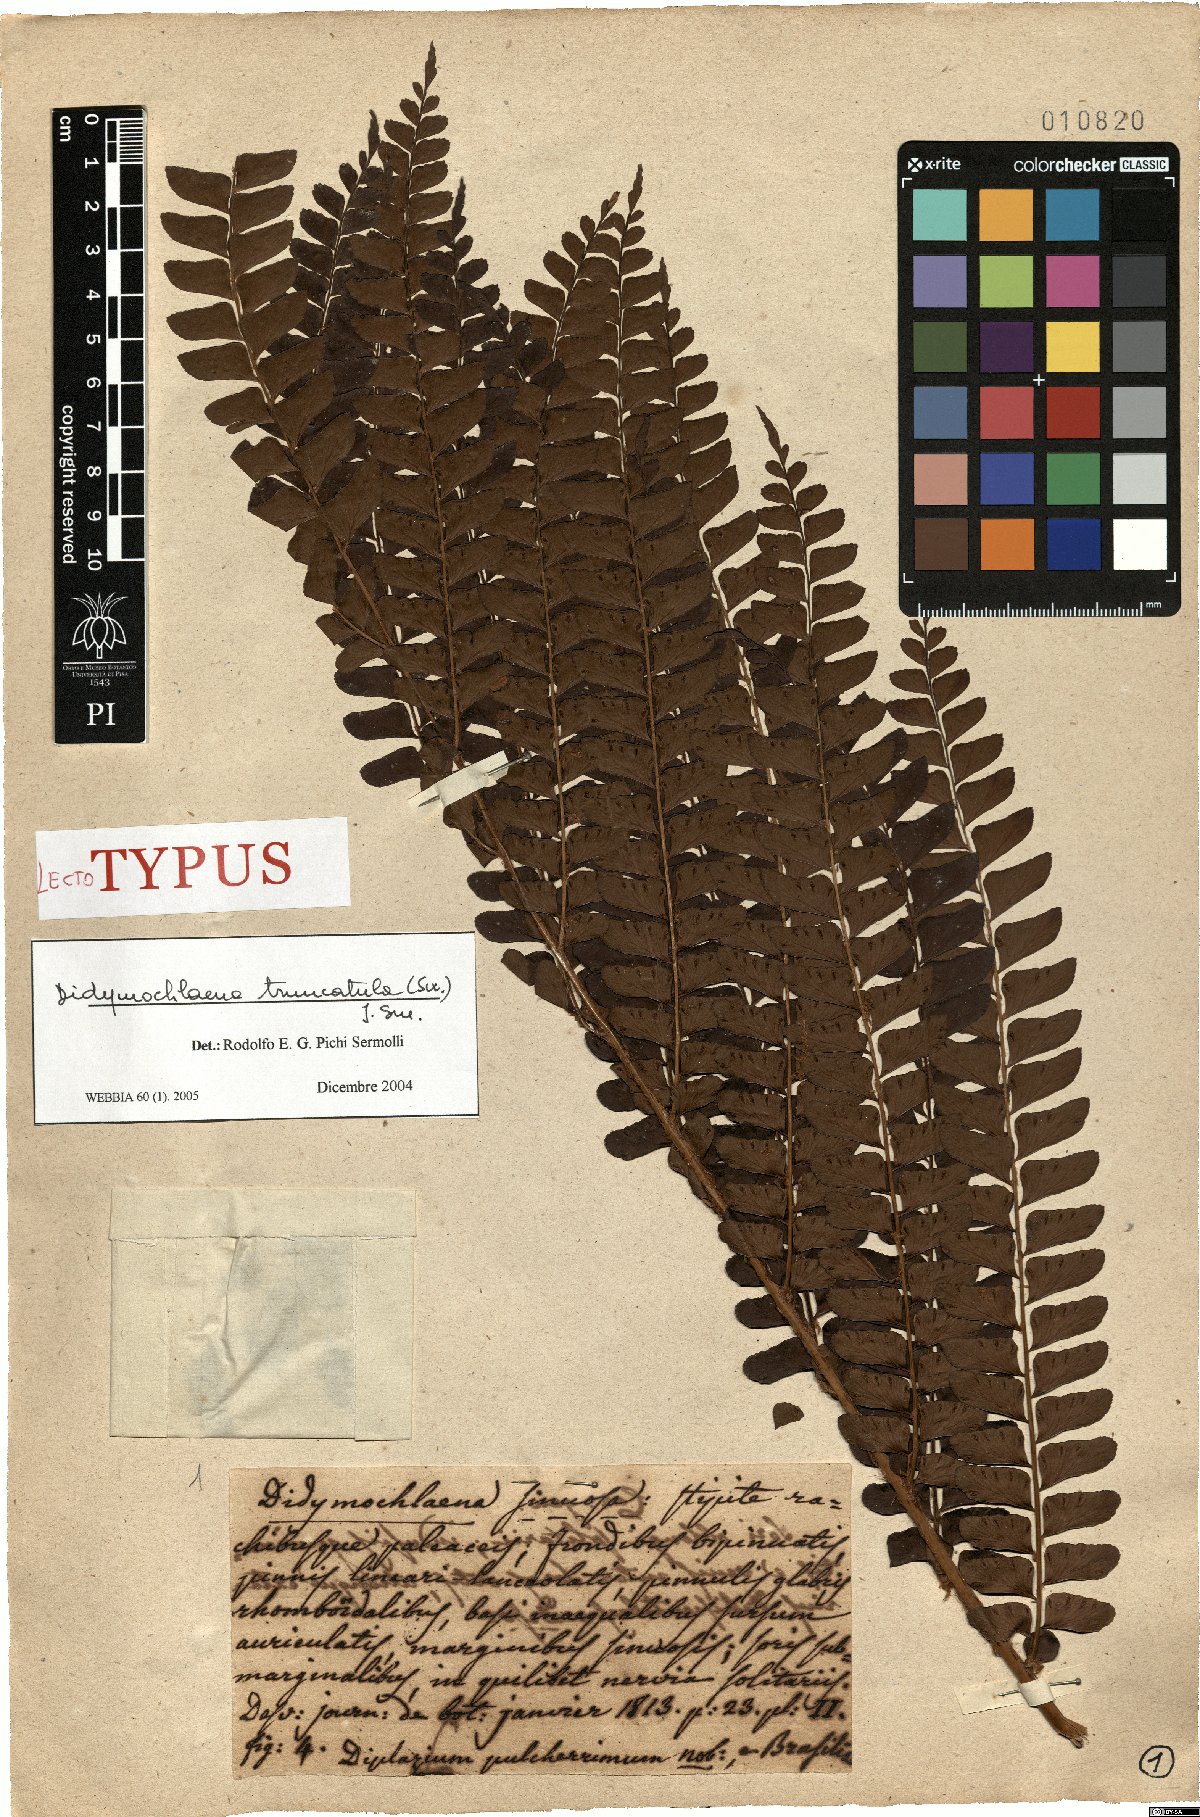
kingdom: Plantae
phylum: Tracheophyta
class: Polypodiopsida
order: Polypodiales
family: Didymochlaenaceae
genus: Didymochlaena
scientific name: Didymochlaena truncatula
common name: Mahogany fern
